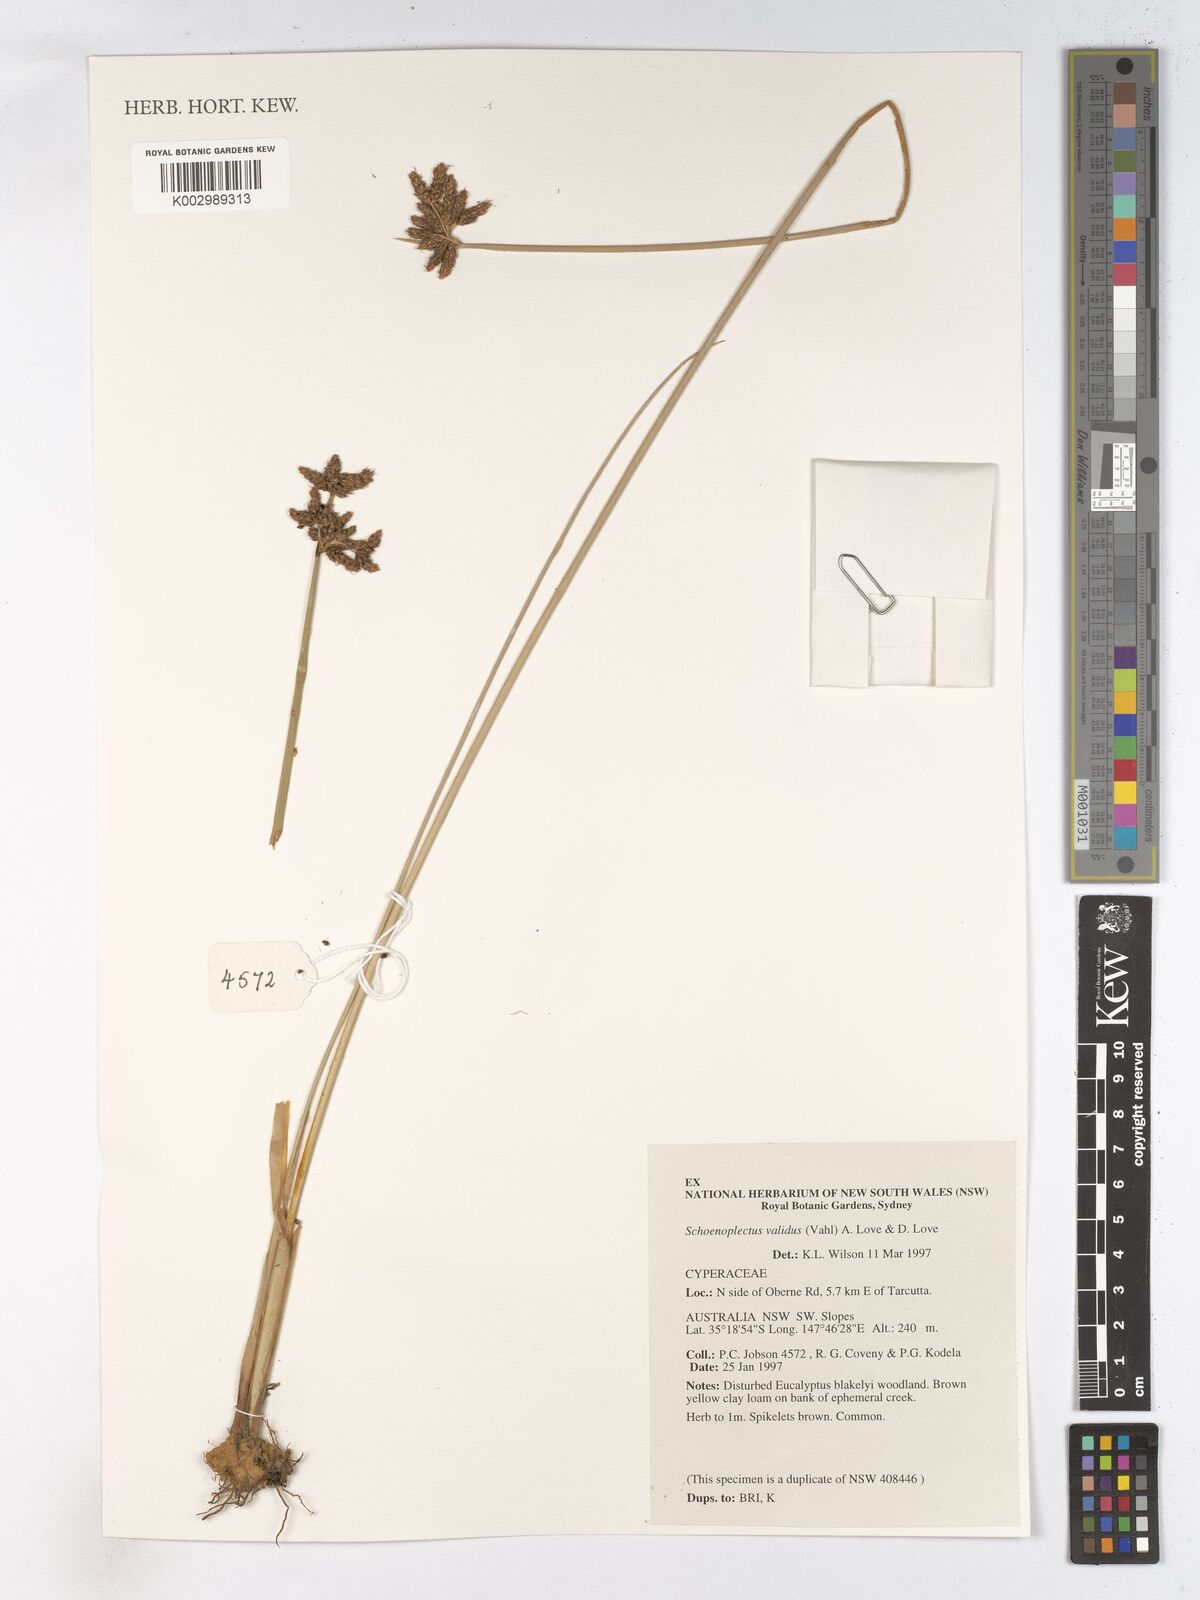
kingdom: Plantae
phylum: Tracheophyta
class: Liliopsida
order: Poales
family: Cyperaceae
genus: Schoenoplectus
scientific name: Schoenoplectus tabernaemontani
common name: Grey club-rush
